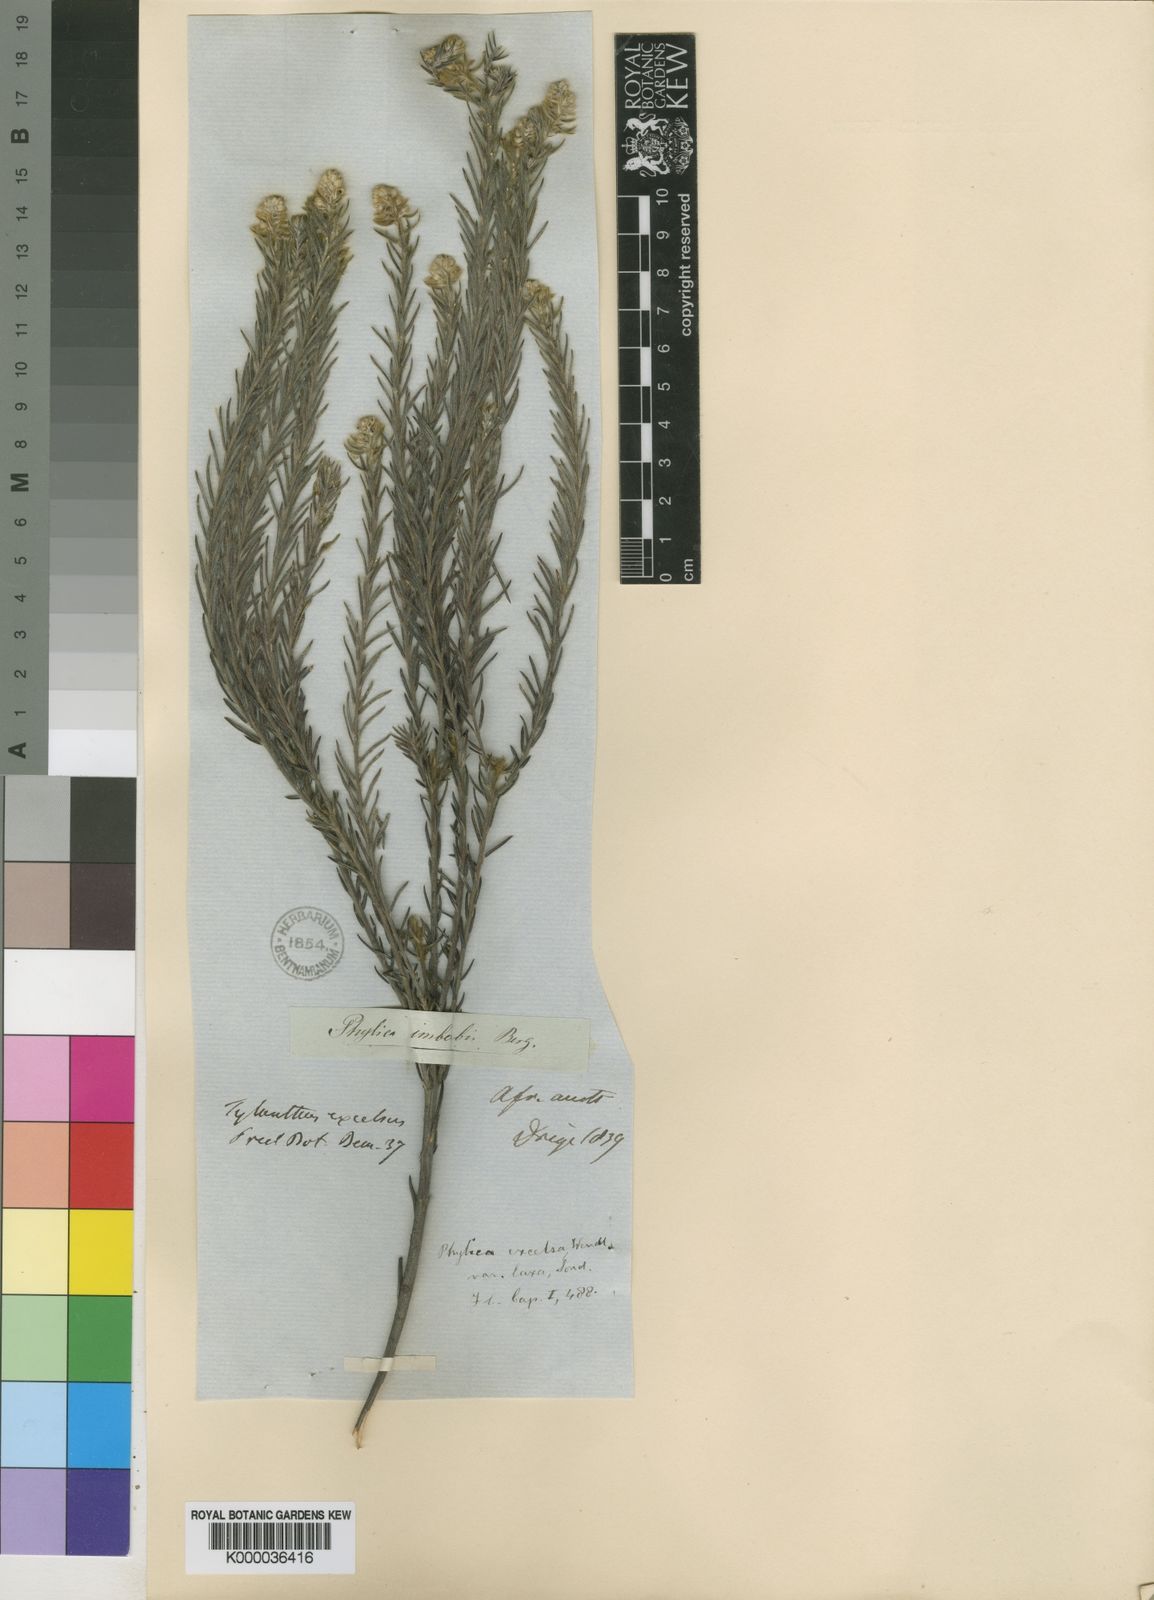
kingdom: Plantae
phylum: Tracheophyta
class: Magnoliopsida
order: Rosales
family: Rhamnaceae
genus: Phylica
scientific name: Phylica excelsa
